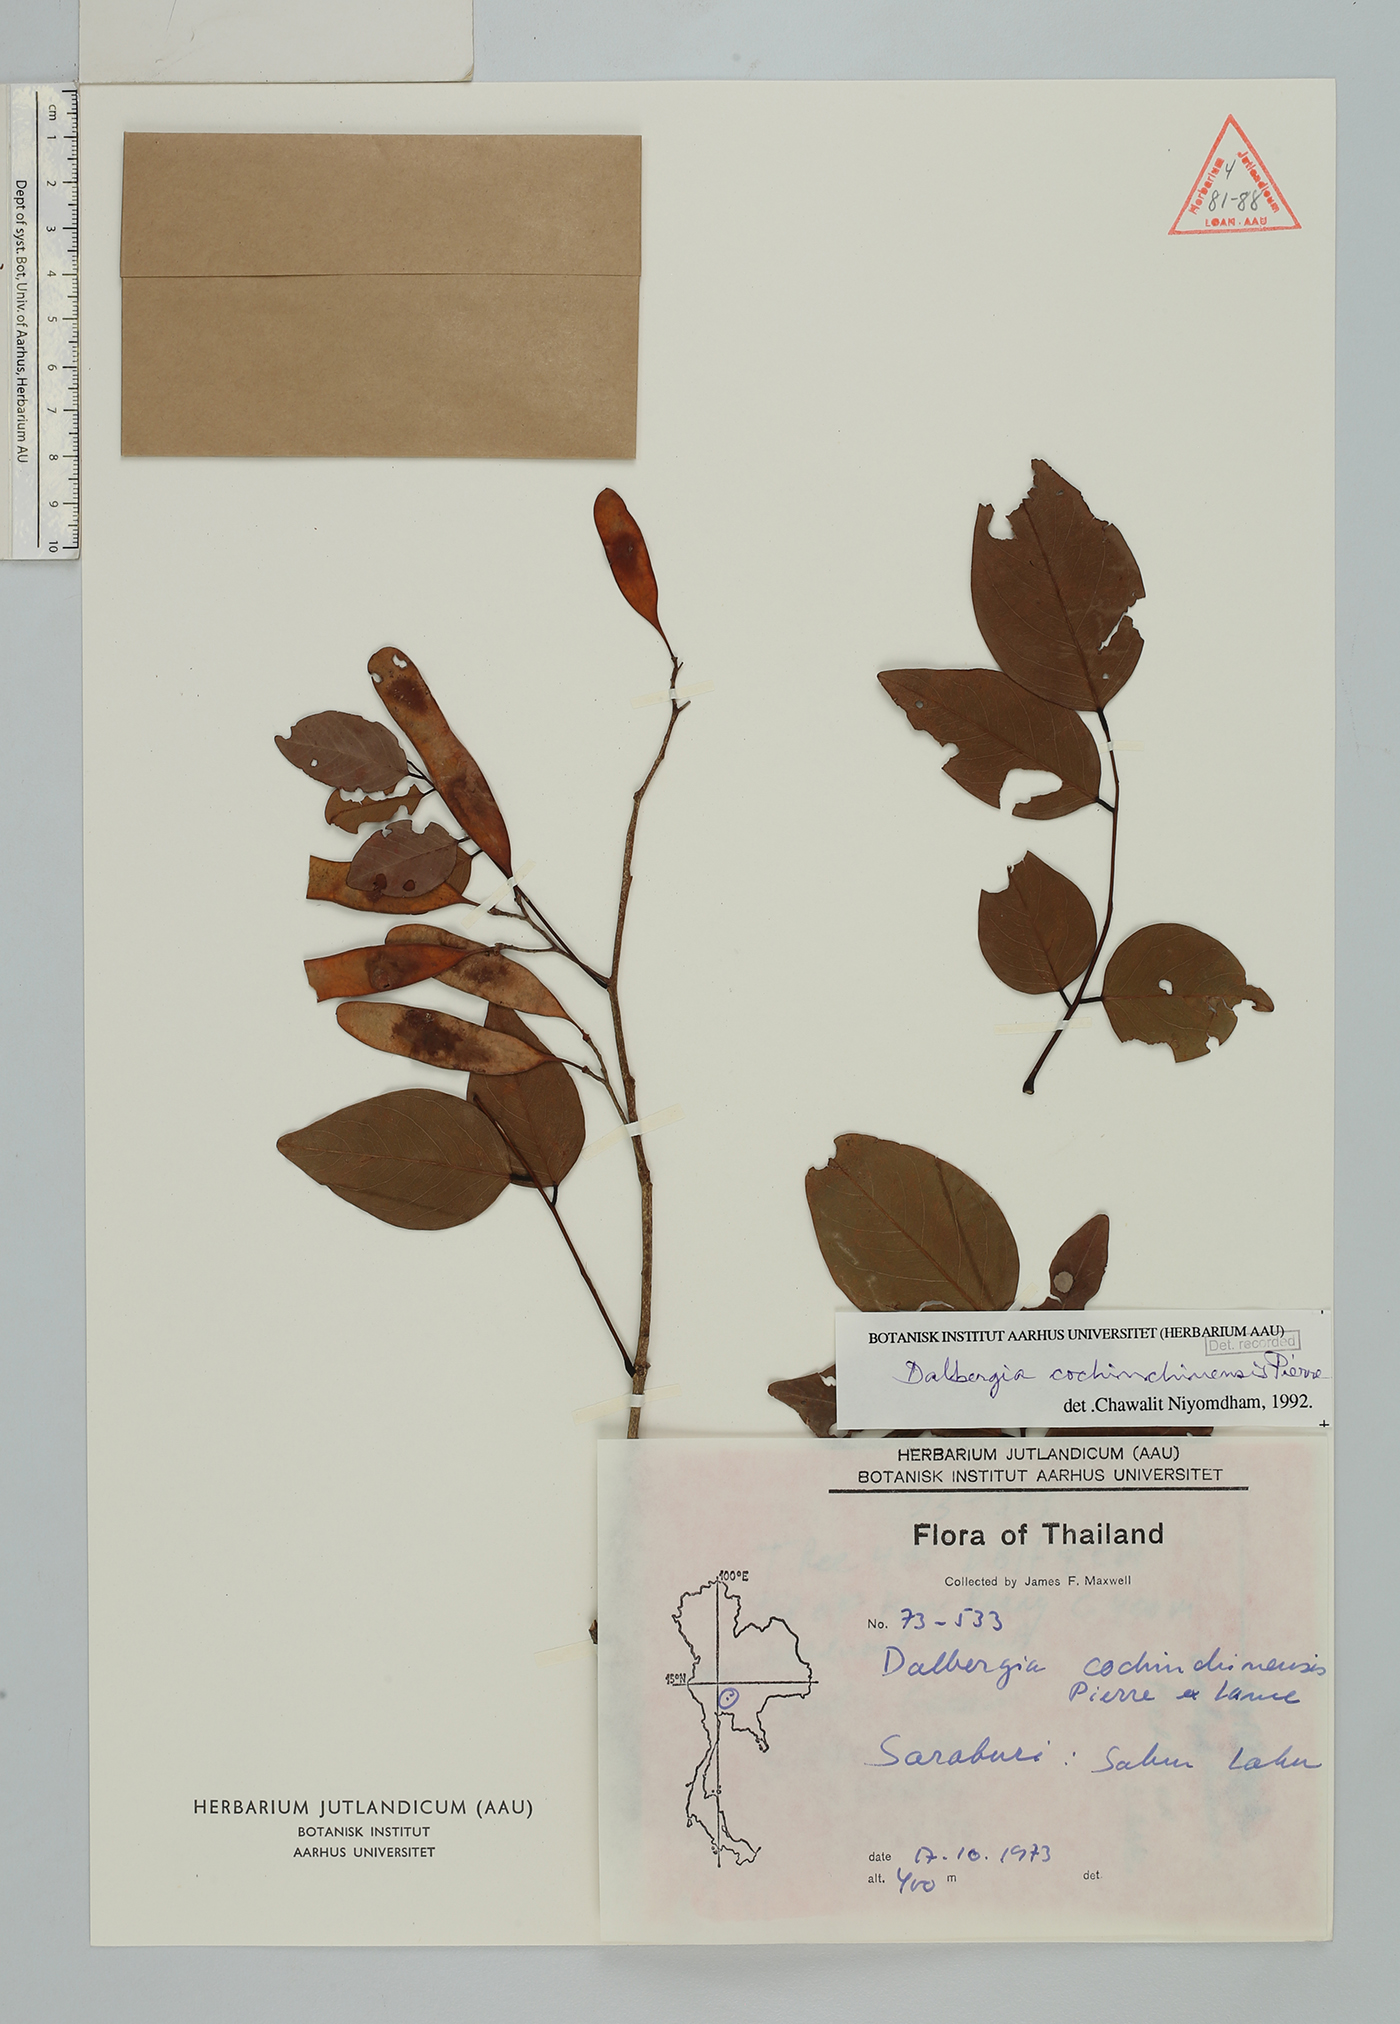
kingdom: Plantae
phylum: Tracheophyta
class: Magnoliopsida
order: Fabales
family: Fabaceae
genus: Dalbergia
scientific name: Dalbergia cochinchinensis
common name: Siamese rosewood
